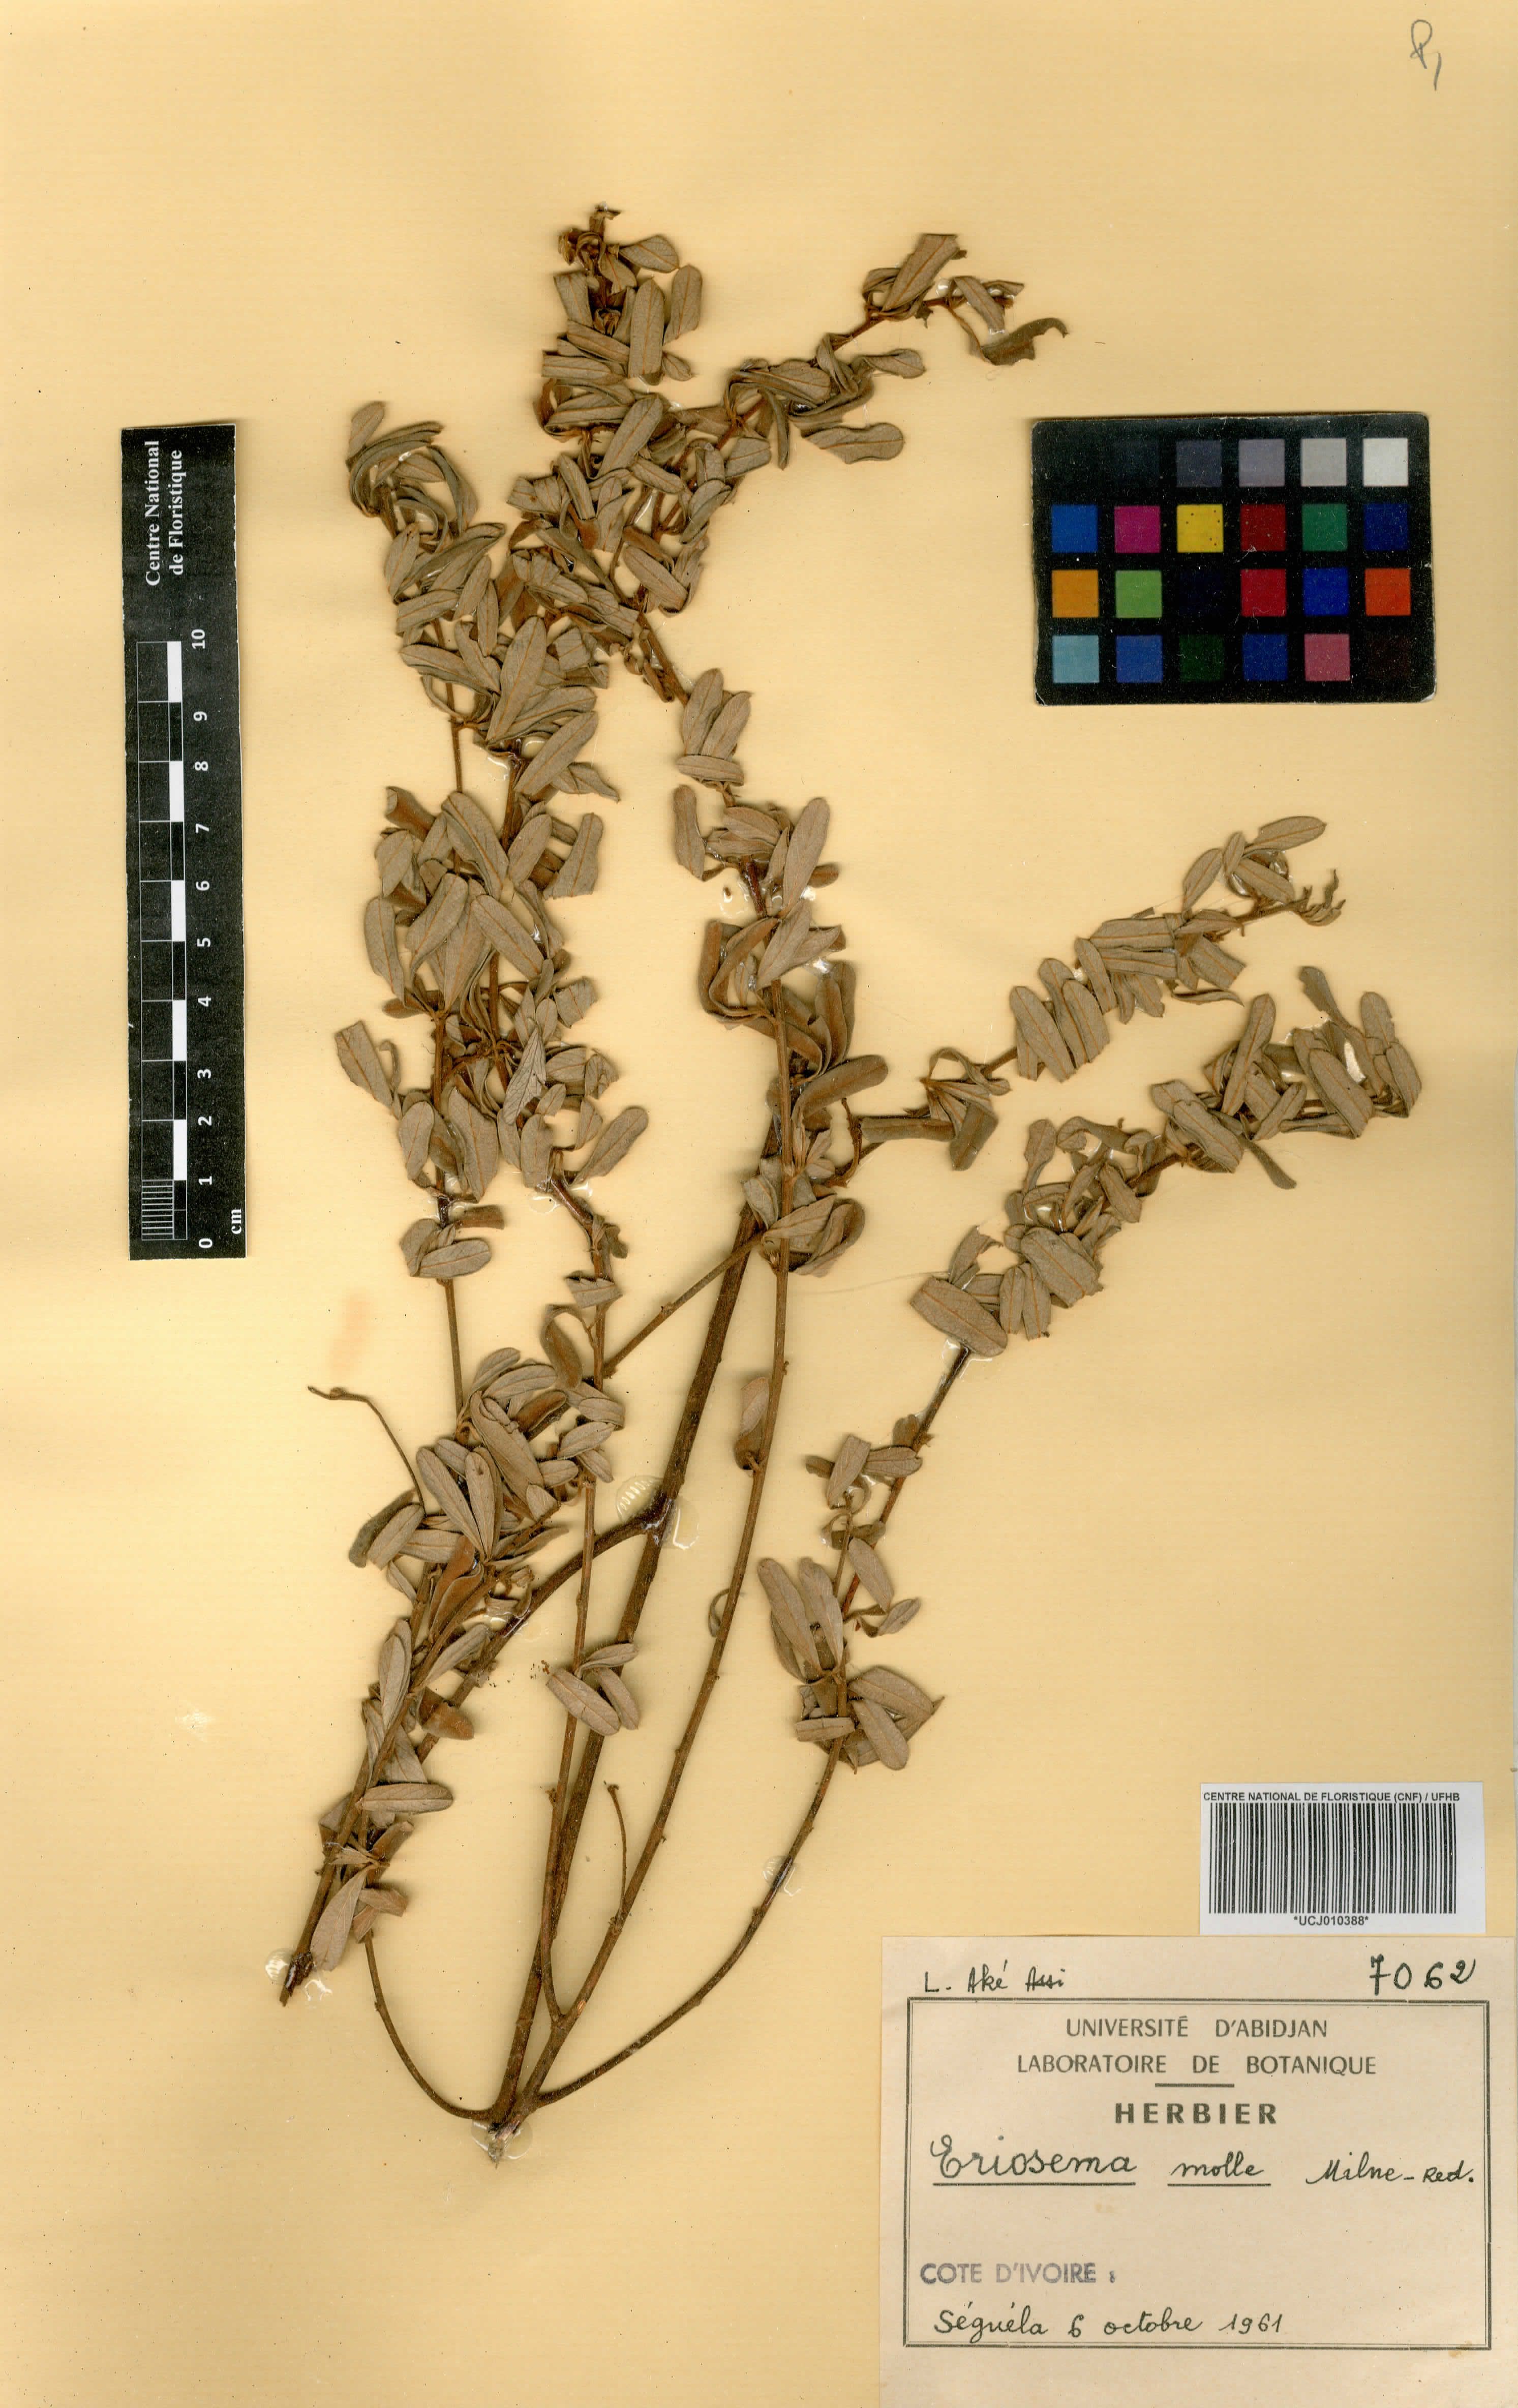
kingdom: Plantae
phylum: Tracheophyta
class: Magnoliopsida
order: Fabales
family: Fabaceae
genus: Eriosema
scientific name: Eriosema molle
